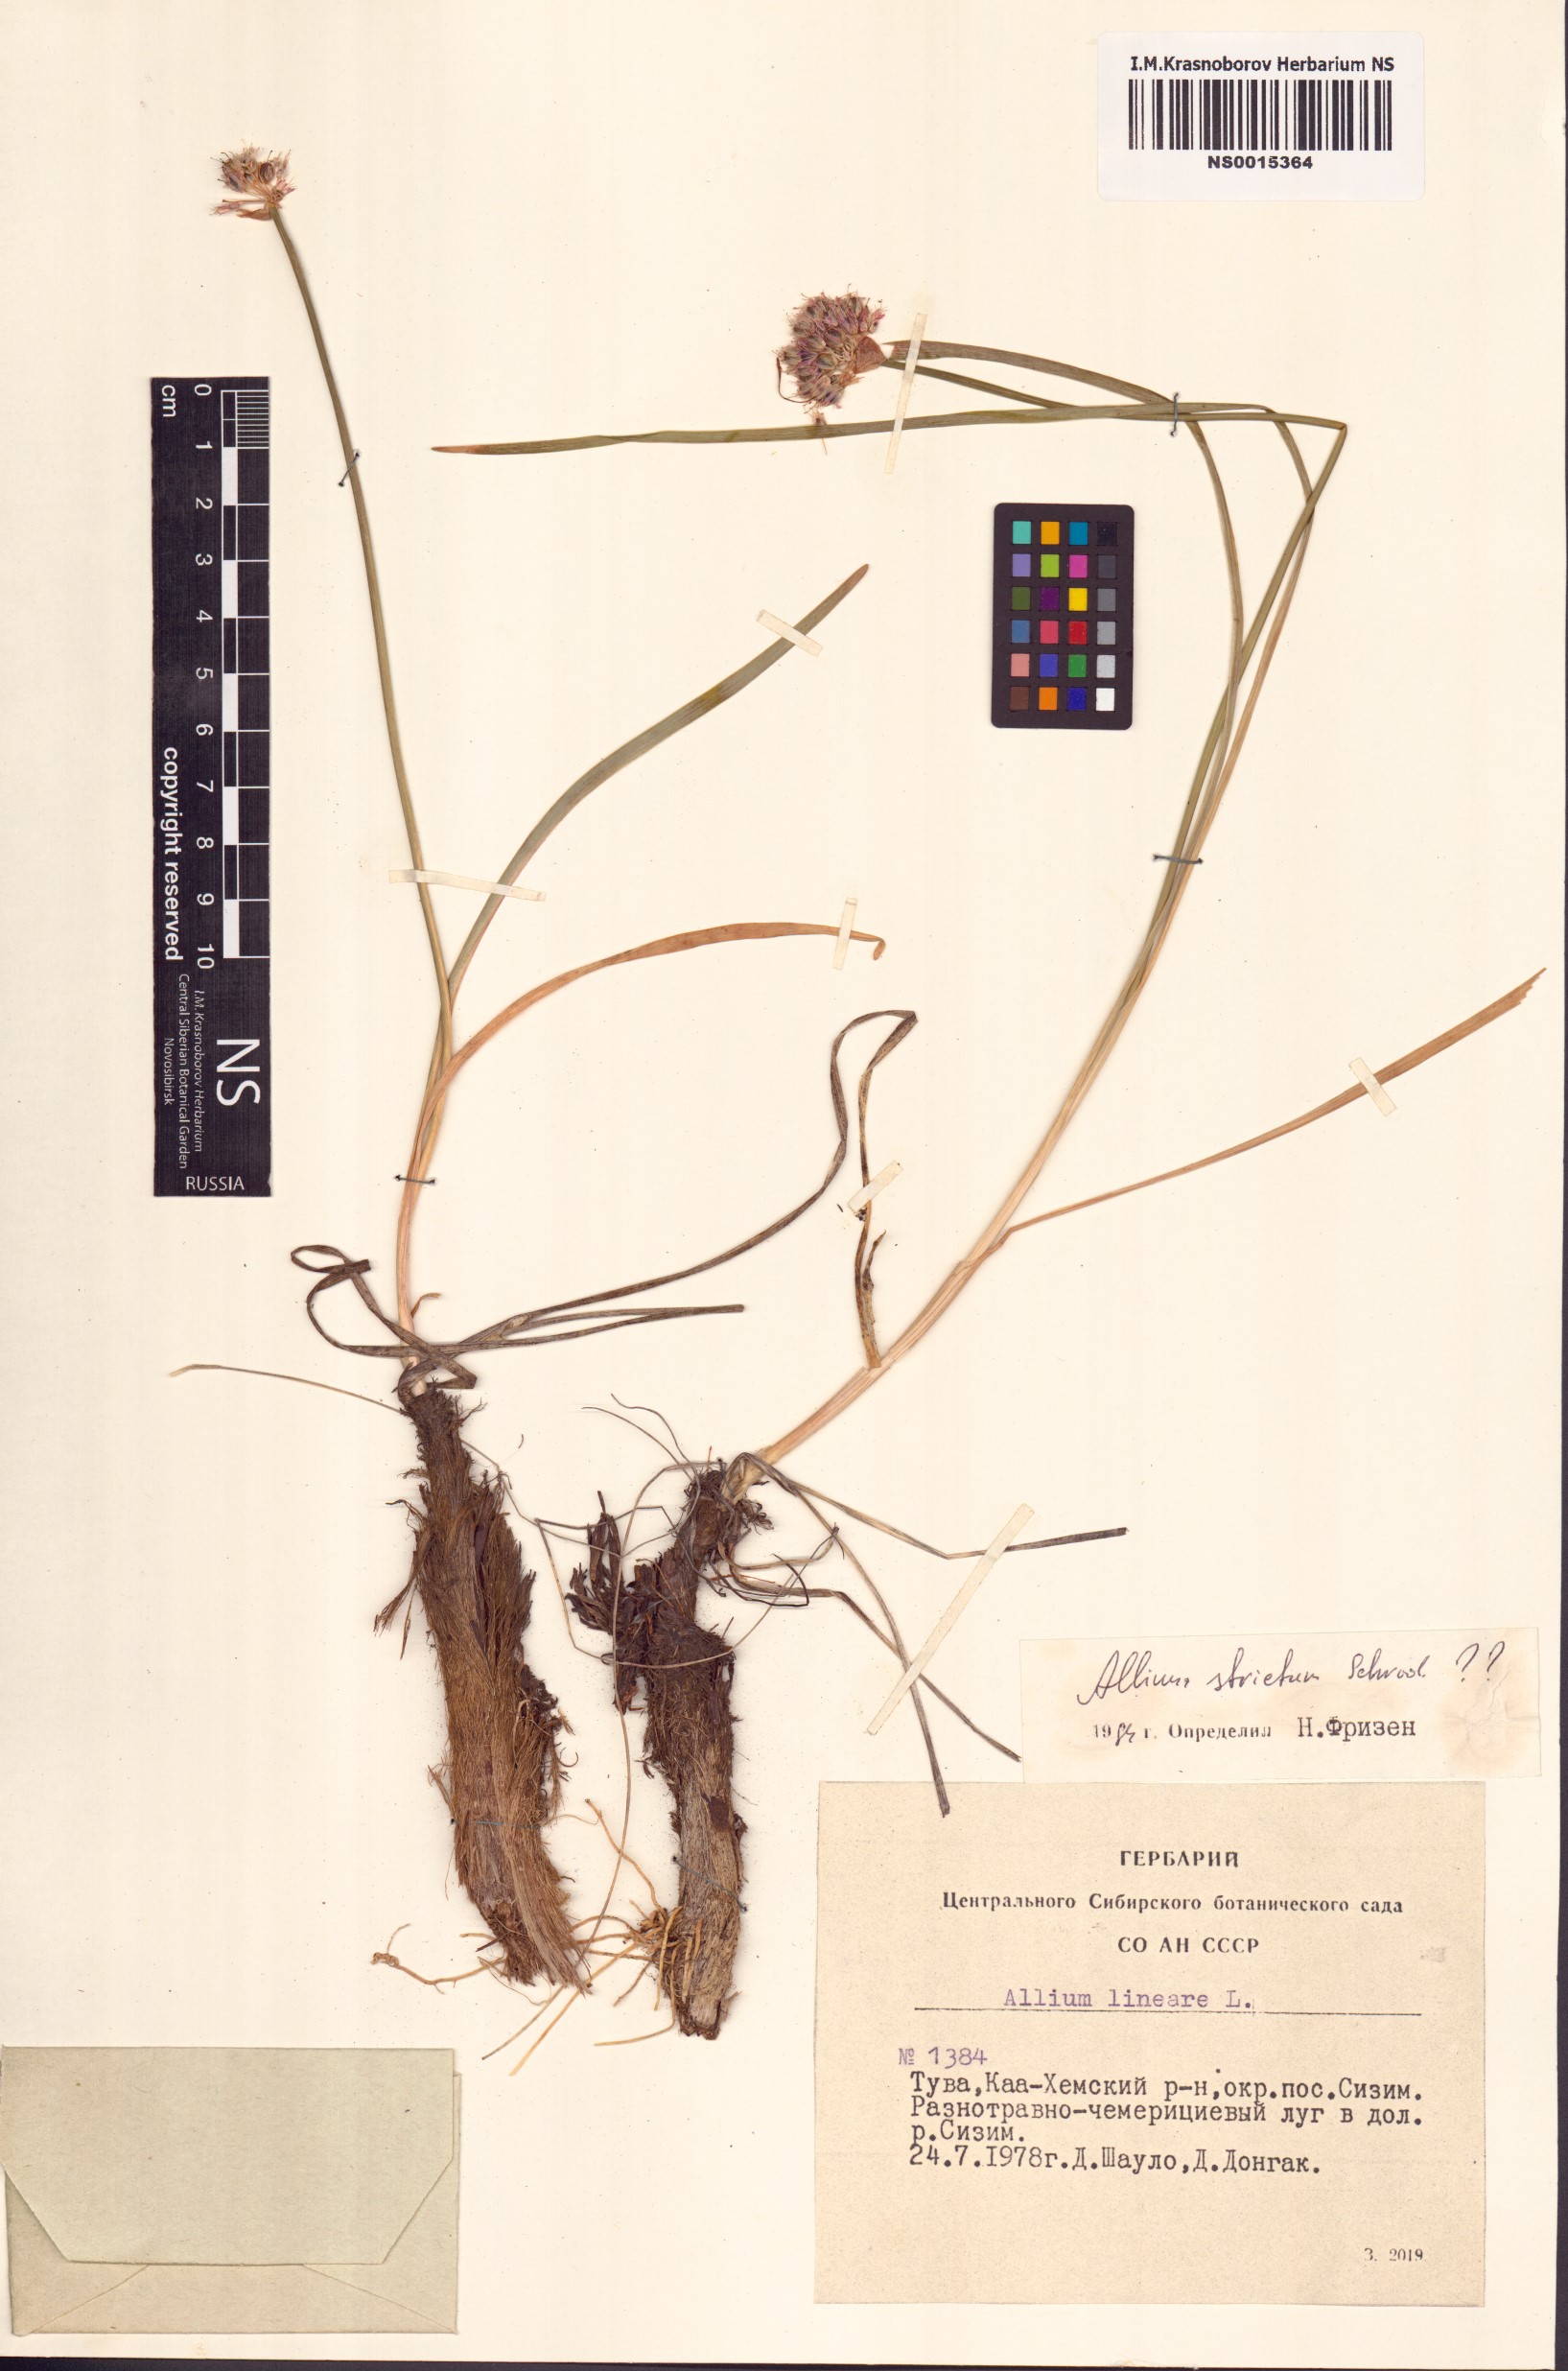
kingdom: Plantae
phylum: Tracheophyta
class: Liliopsida
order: Asparagales
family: Amaryllidaceae
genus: Allium
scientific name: Allium strictum
